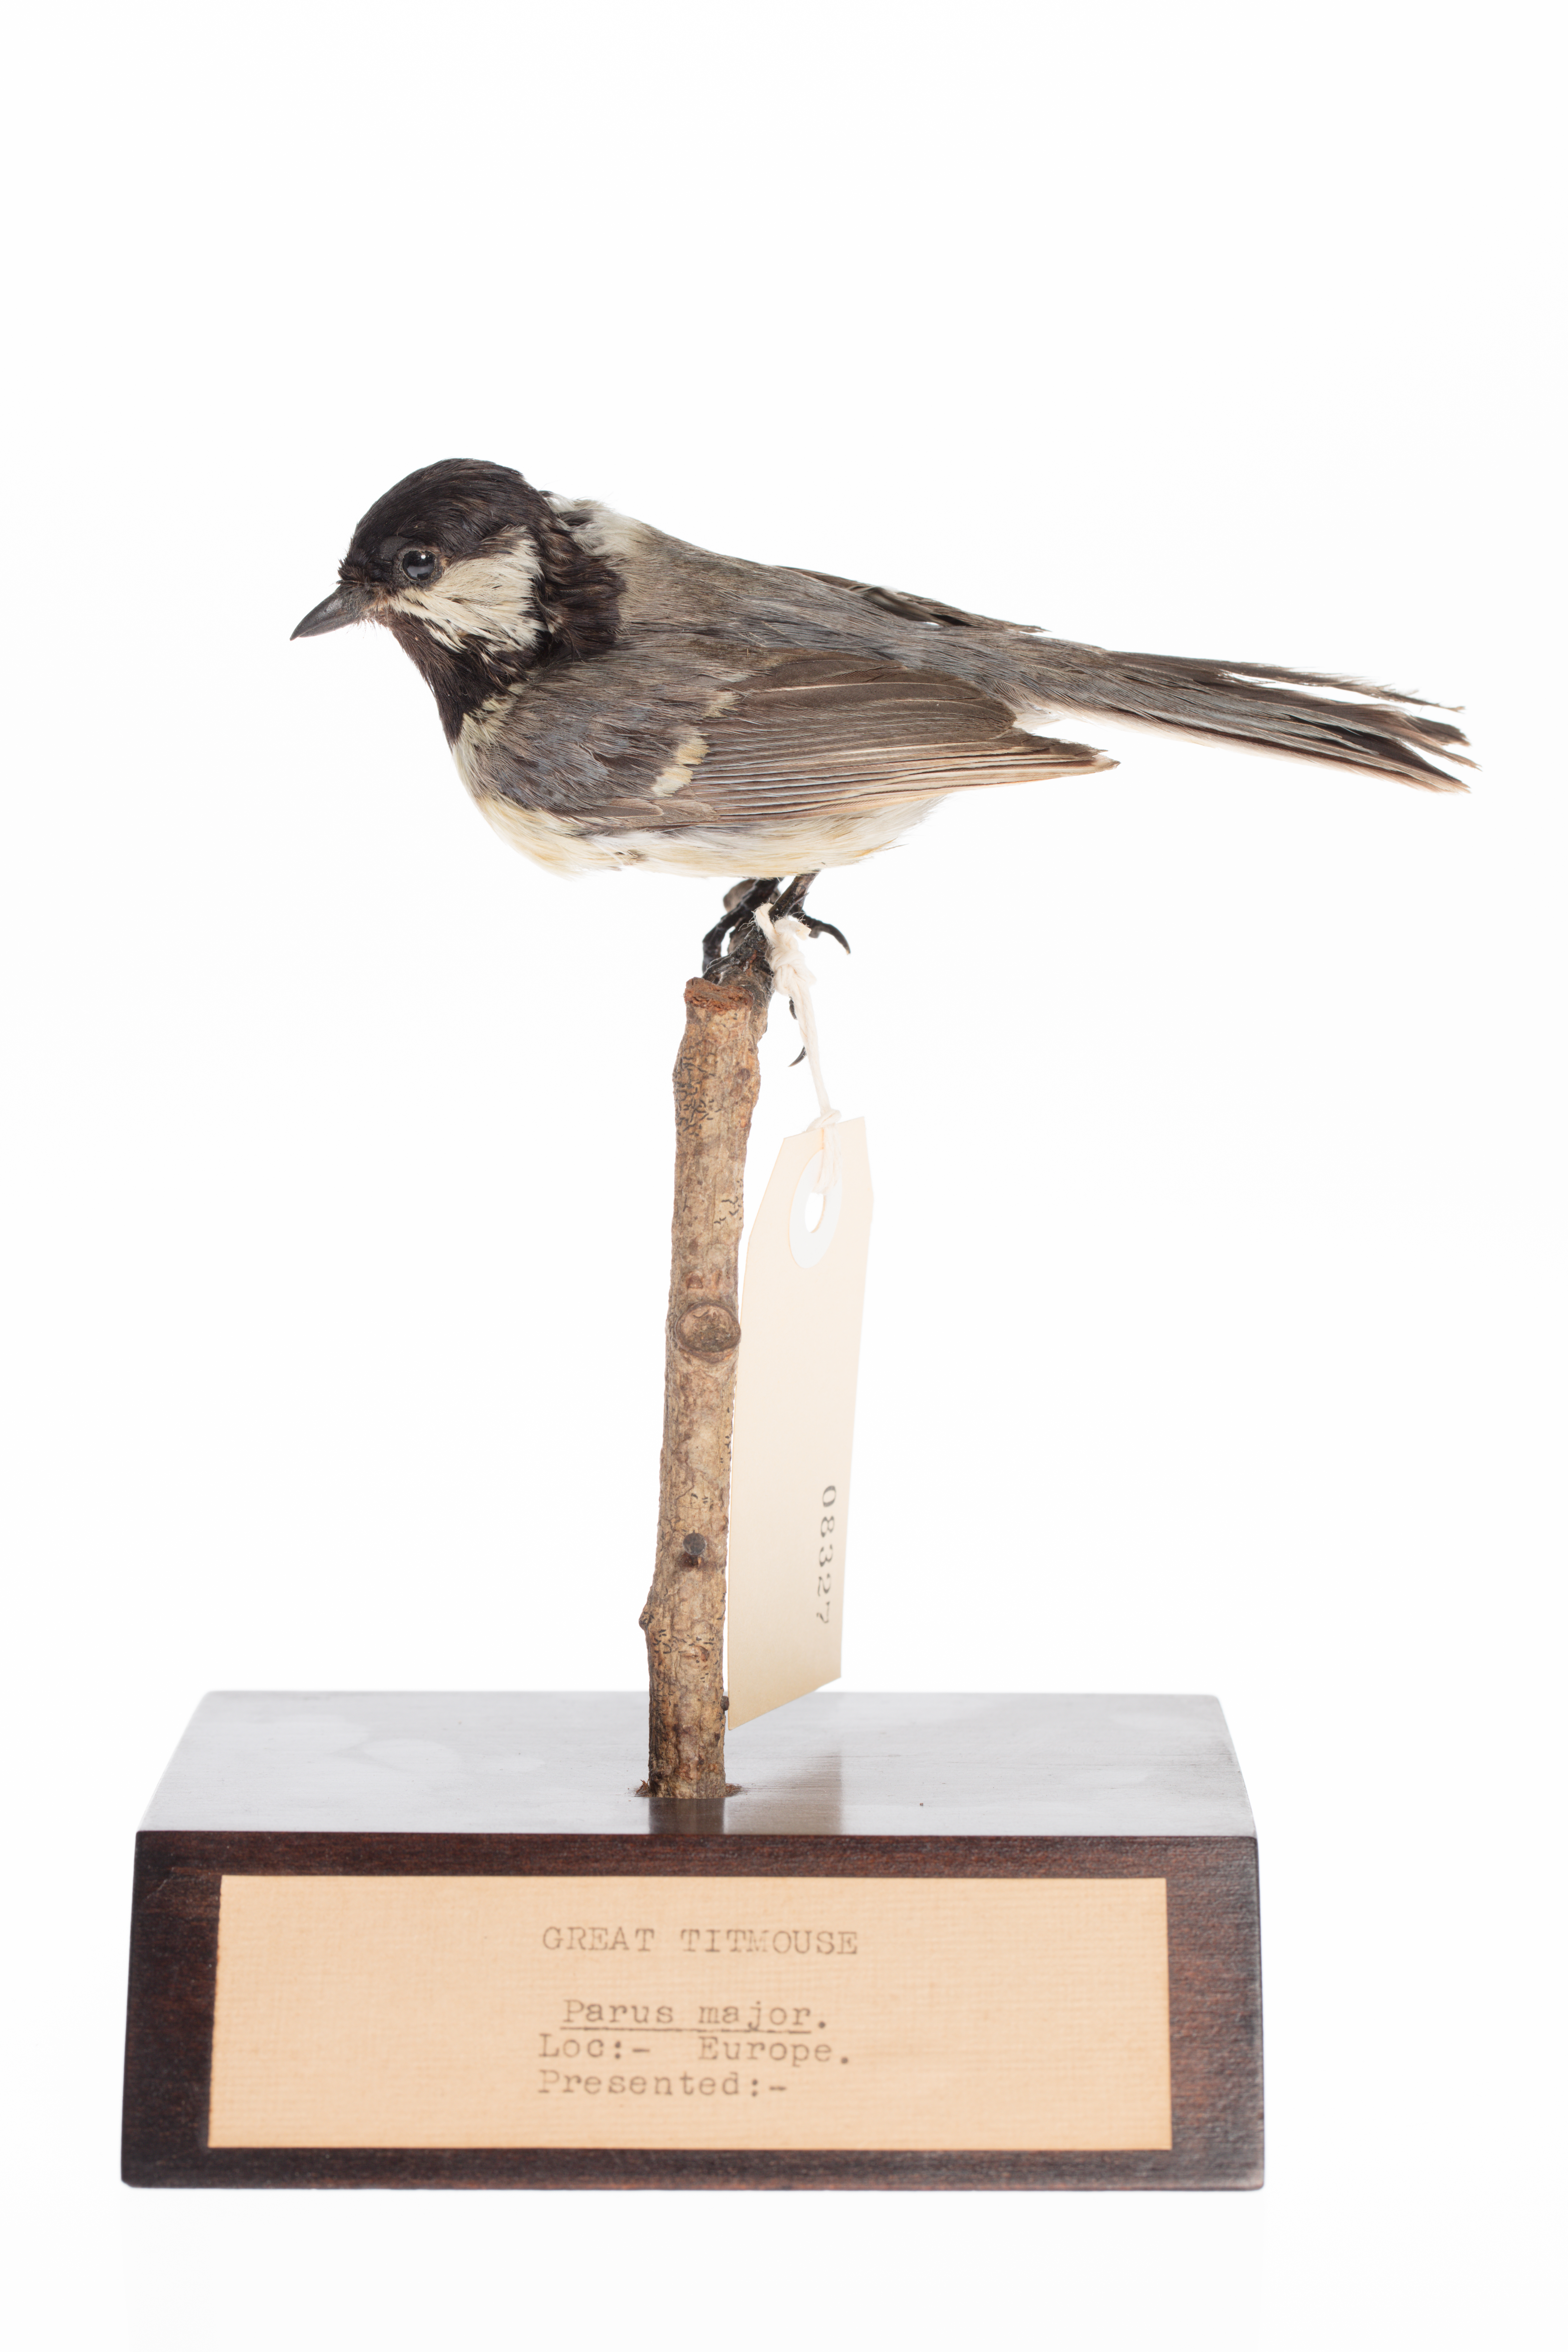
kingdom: Animalia
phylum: Chordata
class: Aves
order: Passeriformes
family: Paridae
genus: Parus
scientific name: Parus major
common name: Great tit
